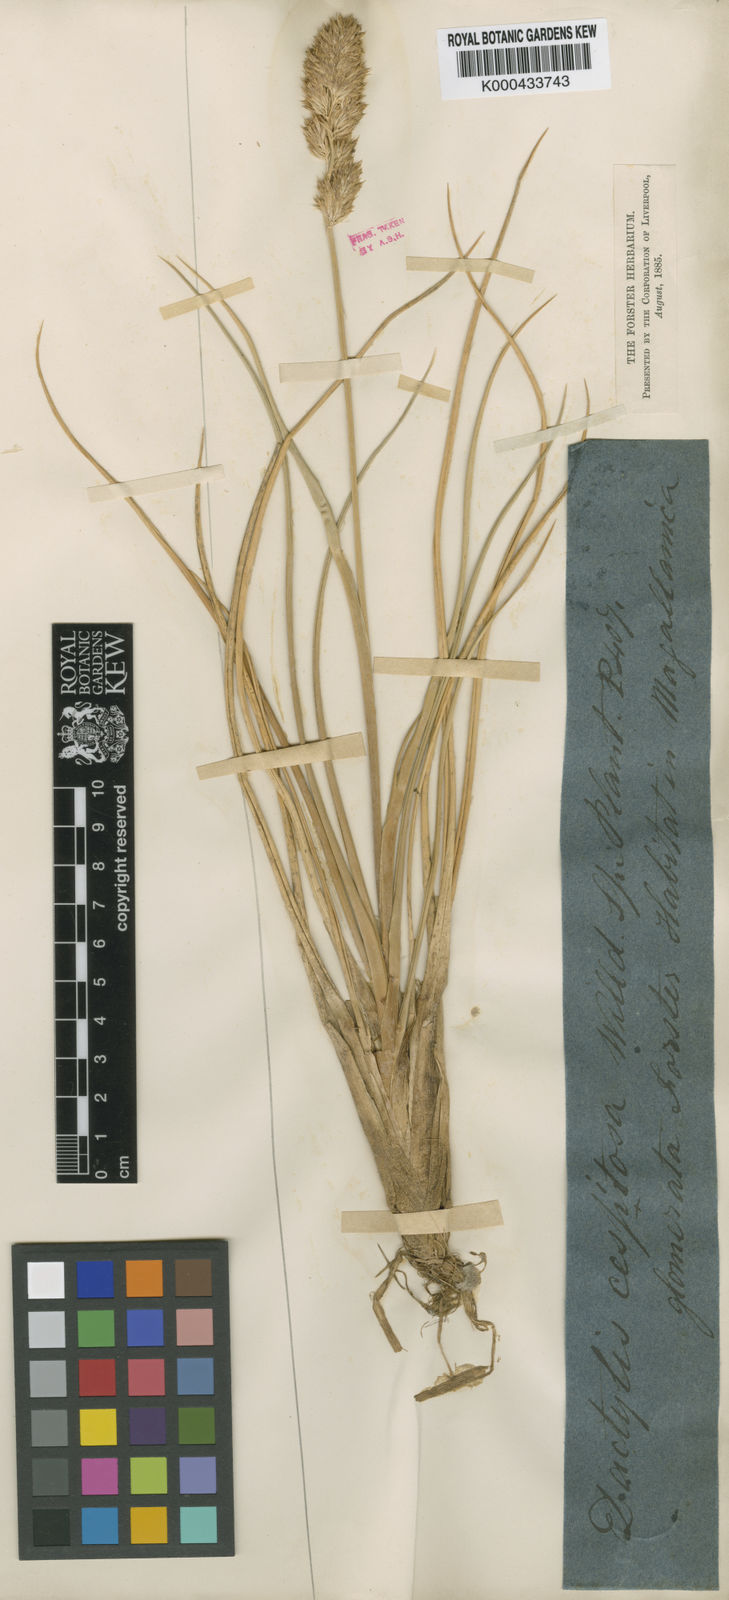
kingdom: Plantae
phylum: Tracheophyta
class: Liliopsida
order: Poales
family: Poaceae
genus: Poa
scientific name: Poa
